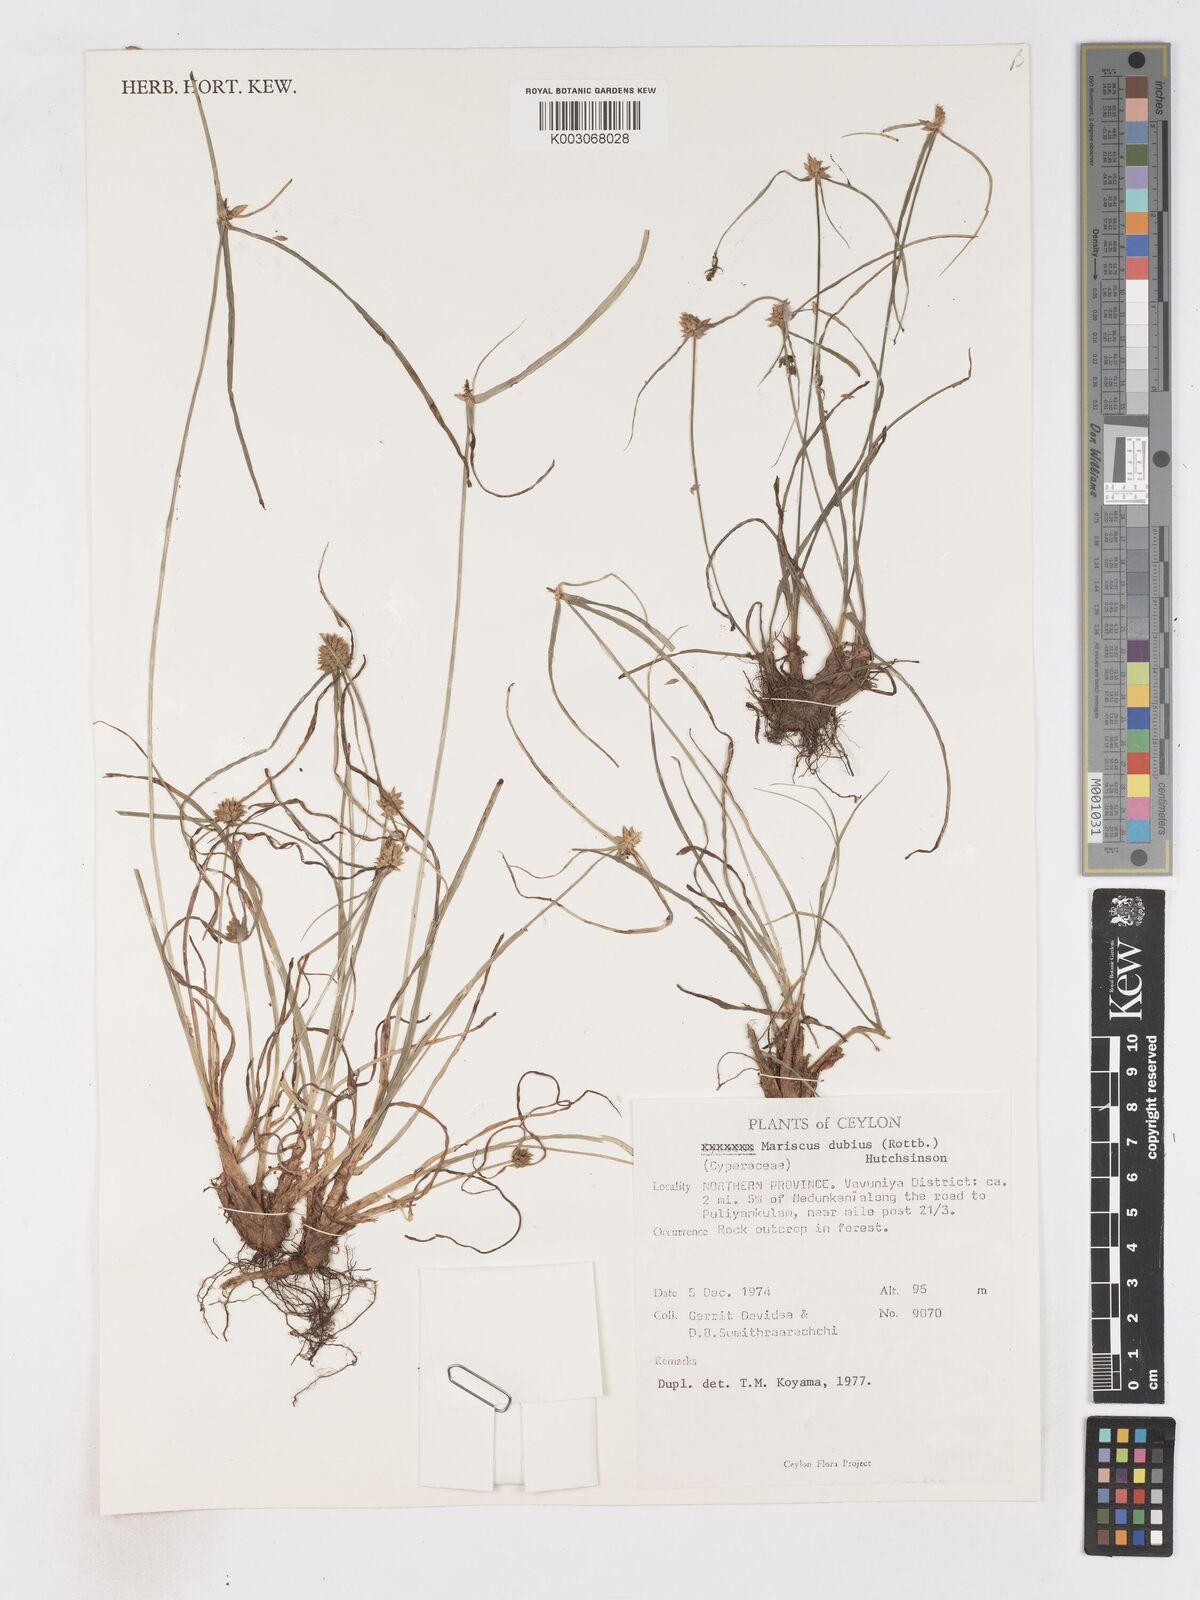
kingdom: Plantae
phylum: Tracheophyta
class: Liliopsida
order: Poales
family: Cyperaceae
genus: Cyperus
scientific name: Cyperus dubius
